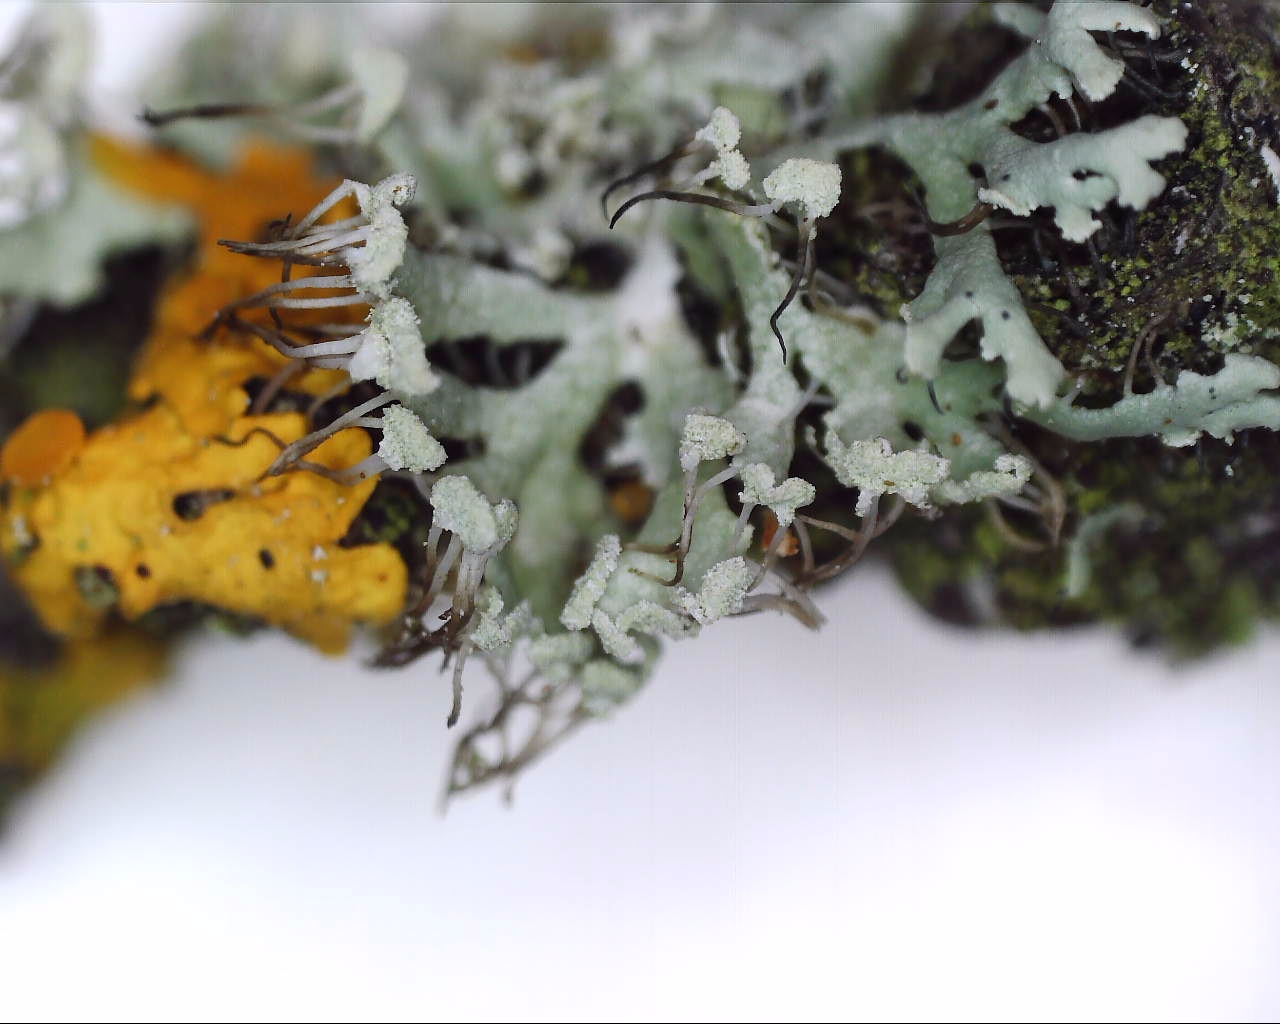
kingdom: Fungi
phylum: Ascomycota
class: Lecanoromycetes
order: Caliciales
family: Physciaceae
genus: Physcia
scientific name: Physcia tenella
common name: spæd rosetlav
